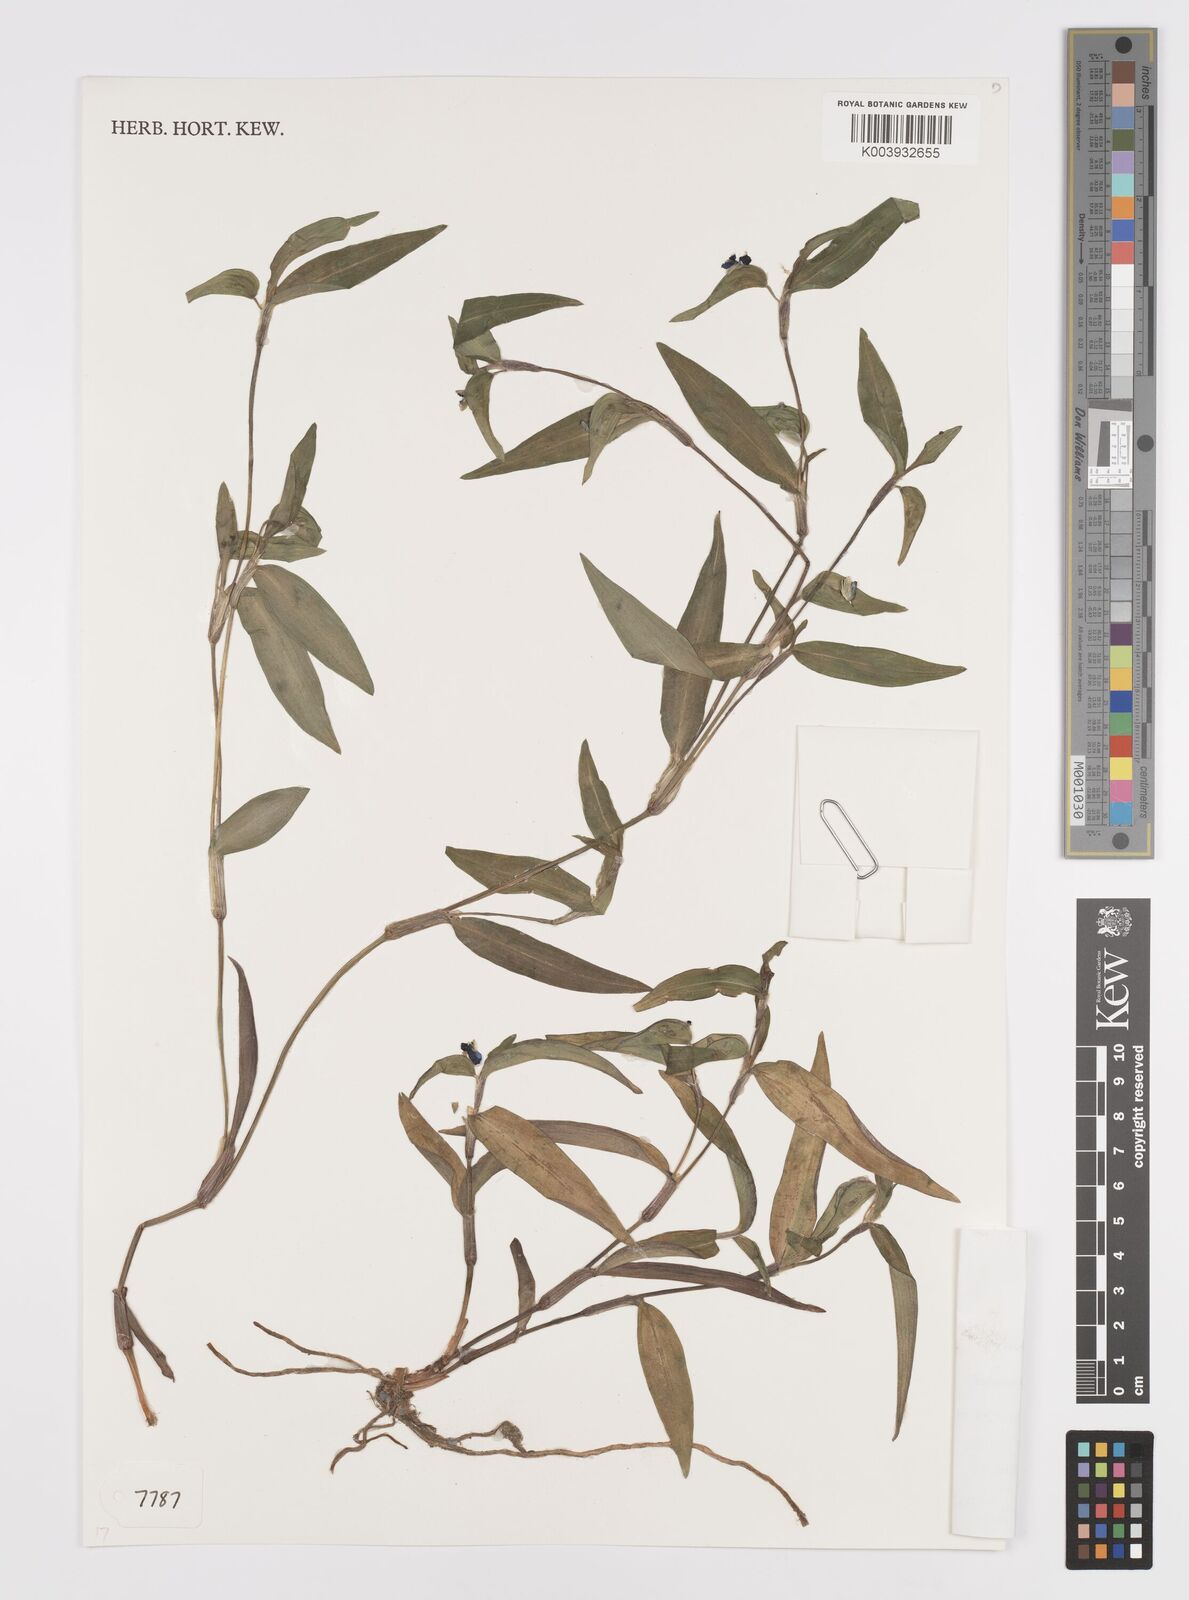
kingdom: Plantae
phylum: Tracheophyta
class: Liliopsida
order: Commelinales
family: Commelinaceae
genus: Commelina
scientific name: Commelina tuberosa
